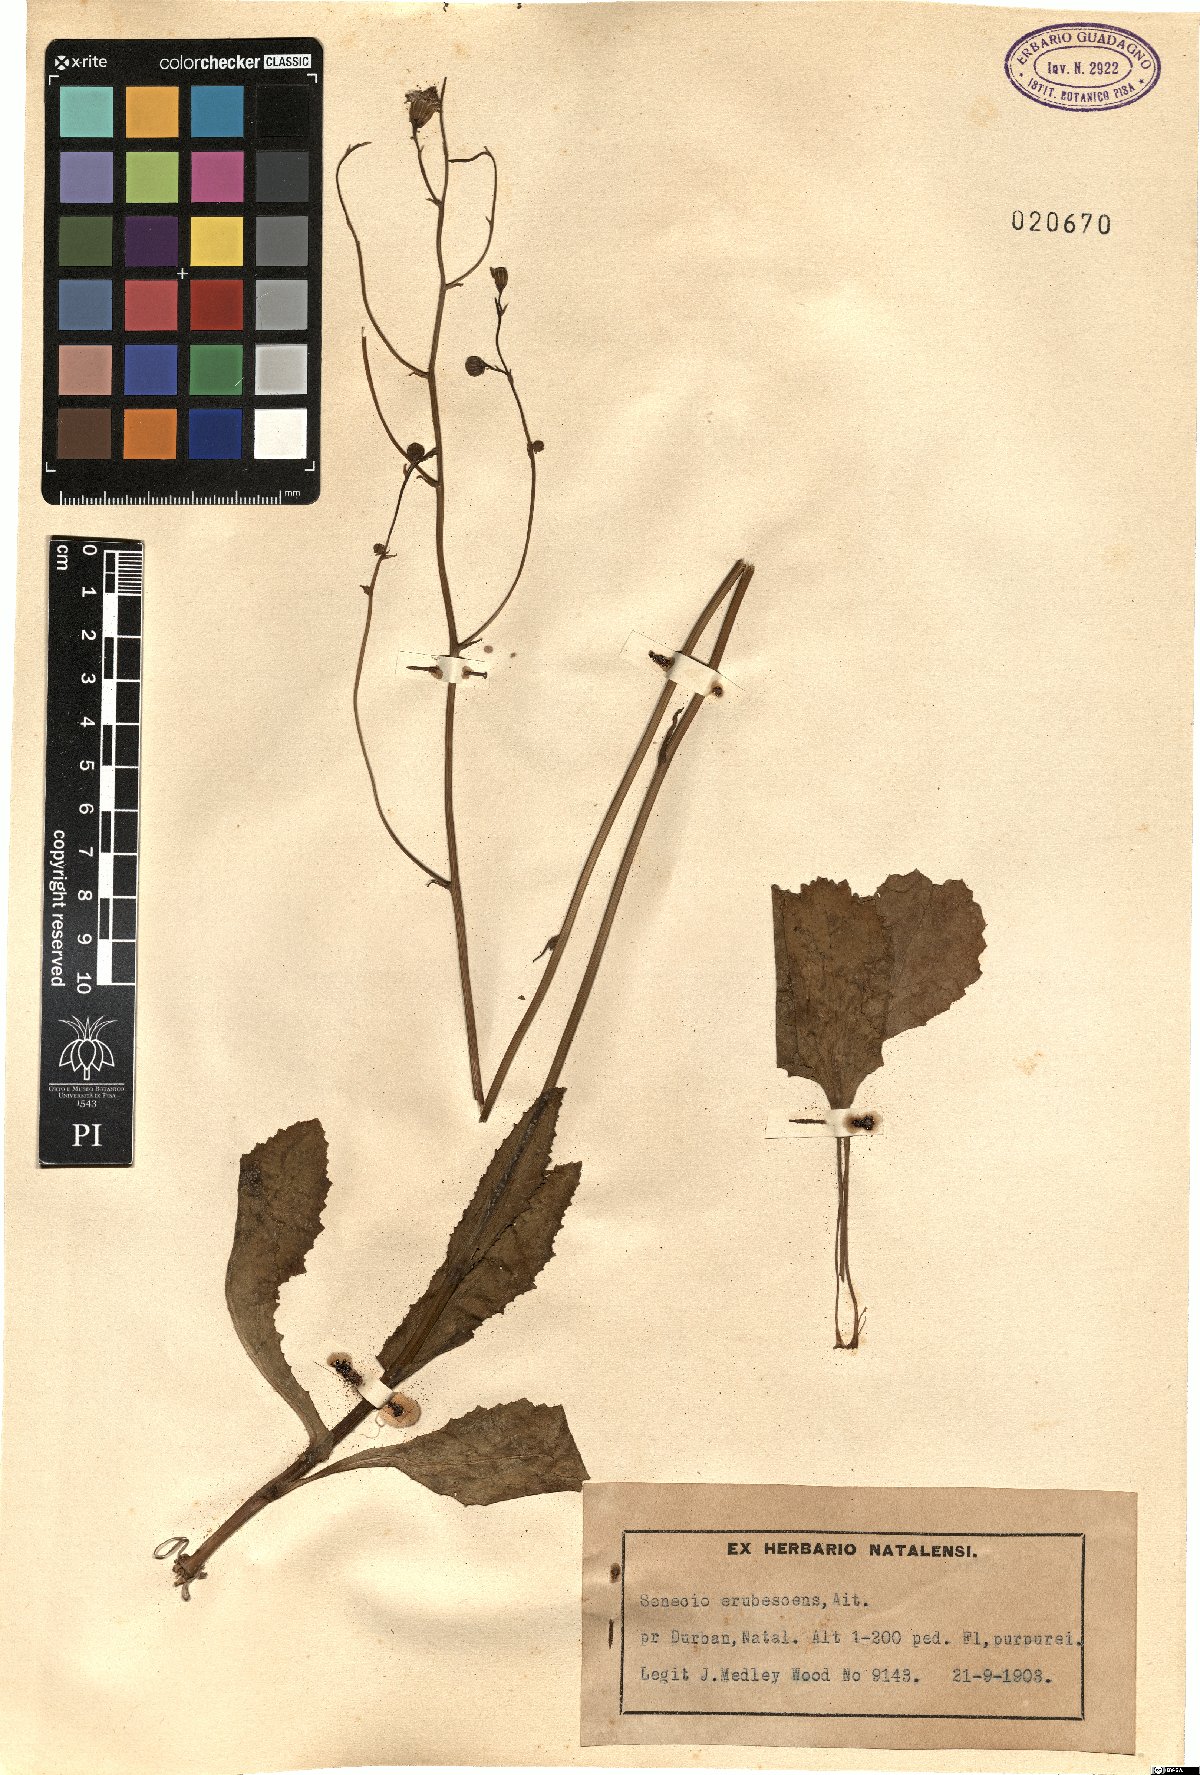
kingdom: Plantae
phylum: Tracheophyta
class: Magnoliopsida
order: Asterales
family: Asteraceae
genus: Senecio
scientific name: Senecio erubescens
